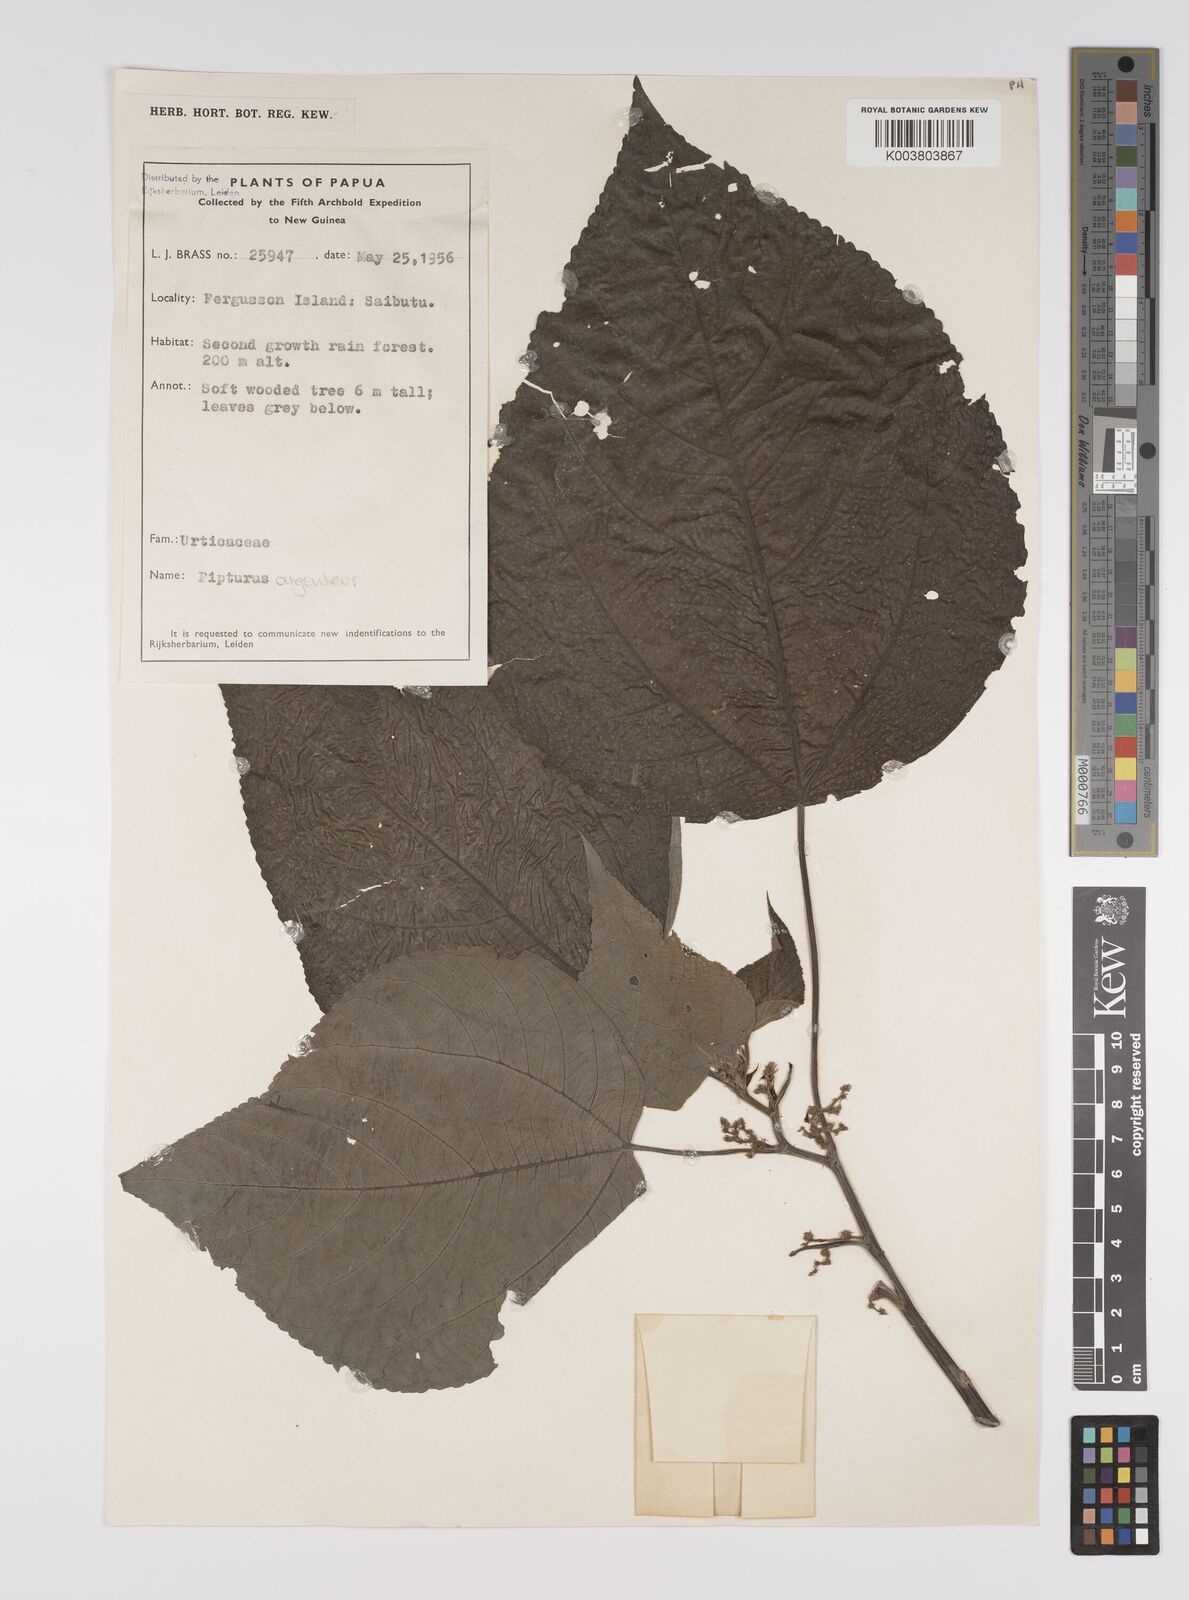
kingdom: Plantae
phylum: Tracheophyta
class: Magnoliopsida
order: Rosales
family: Urticaceae
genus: Pipturus
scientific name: Pipturus argenteus
